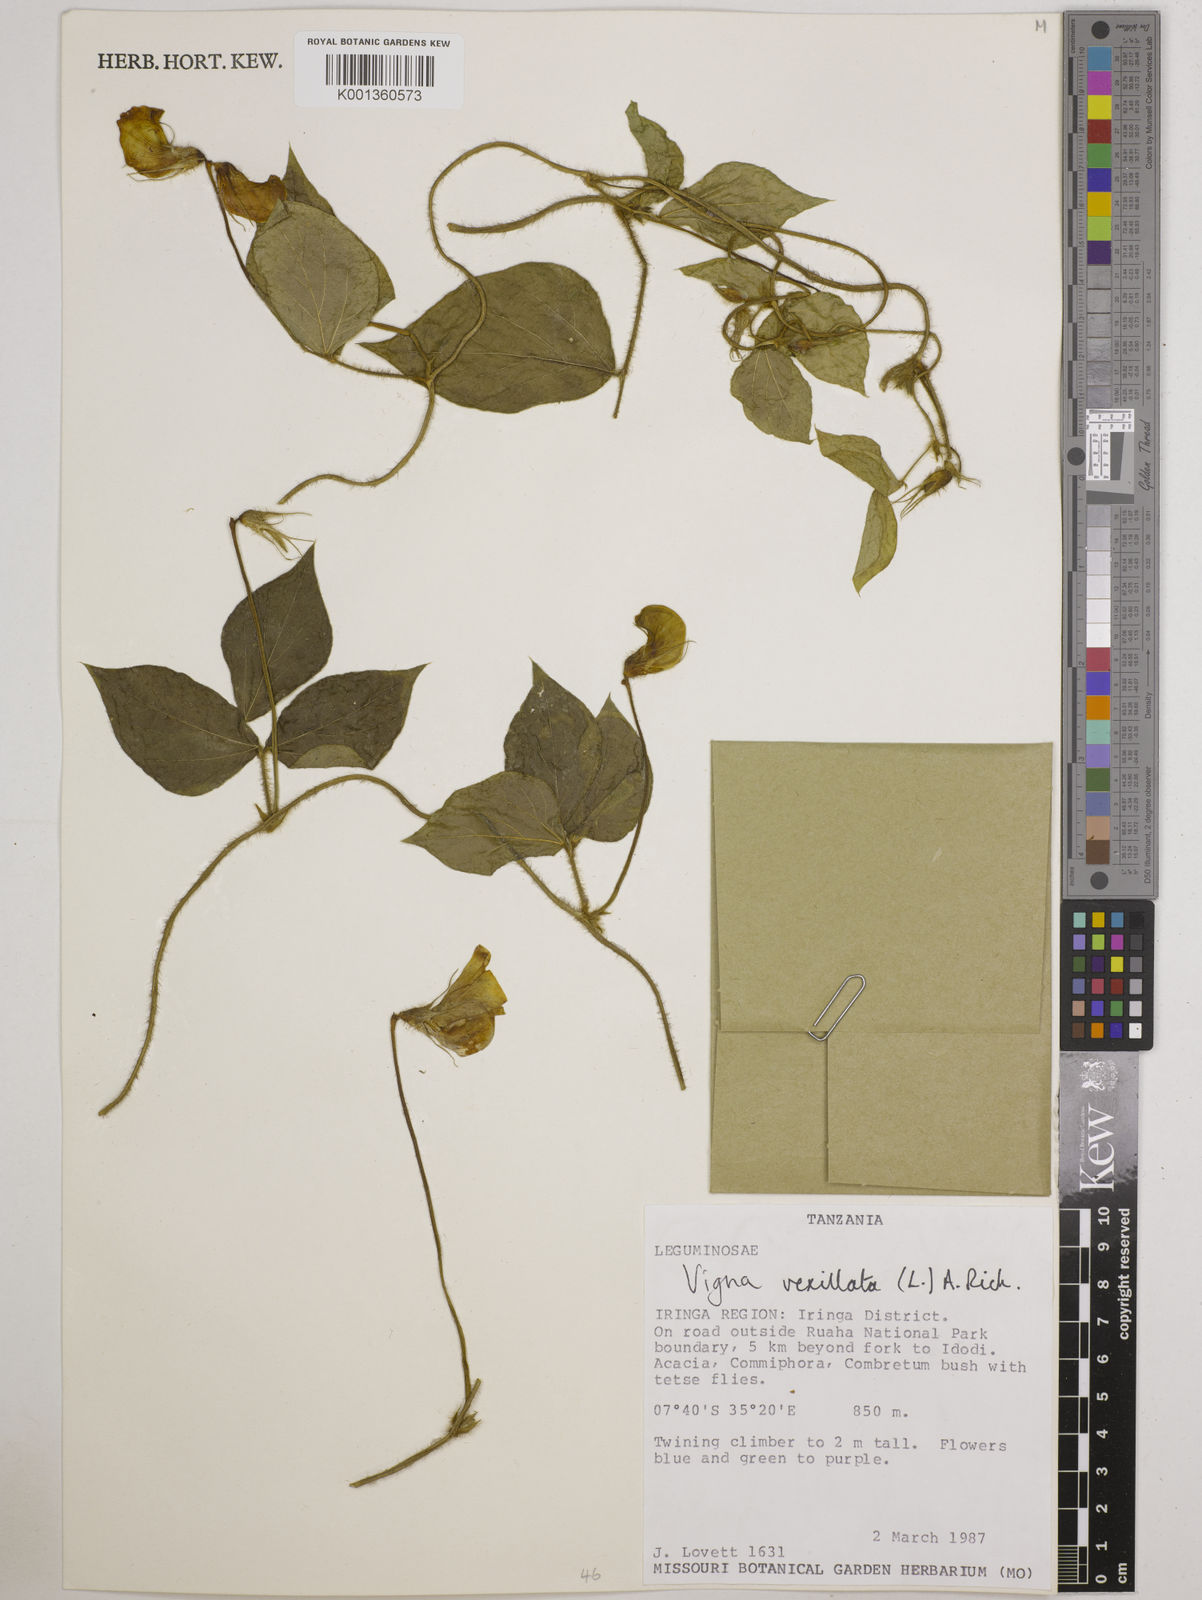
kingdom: Plantae
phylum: Tracheophyta
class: Magnoliopsida
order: Fabales
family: Fabaceae
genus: Vigna
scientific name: Vigna vexillata
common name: Zombi pea
